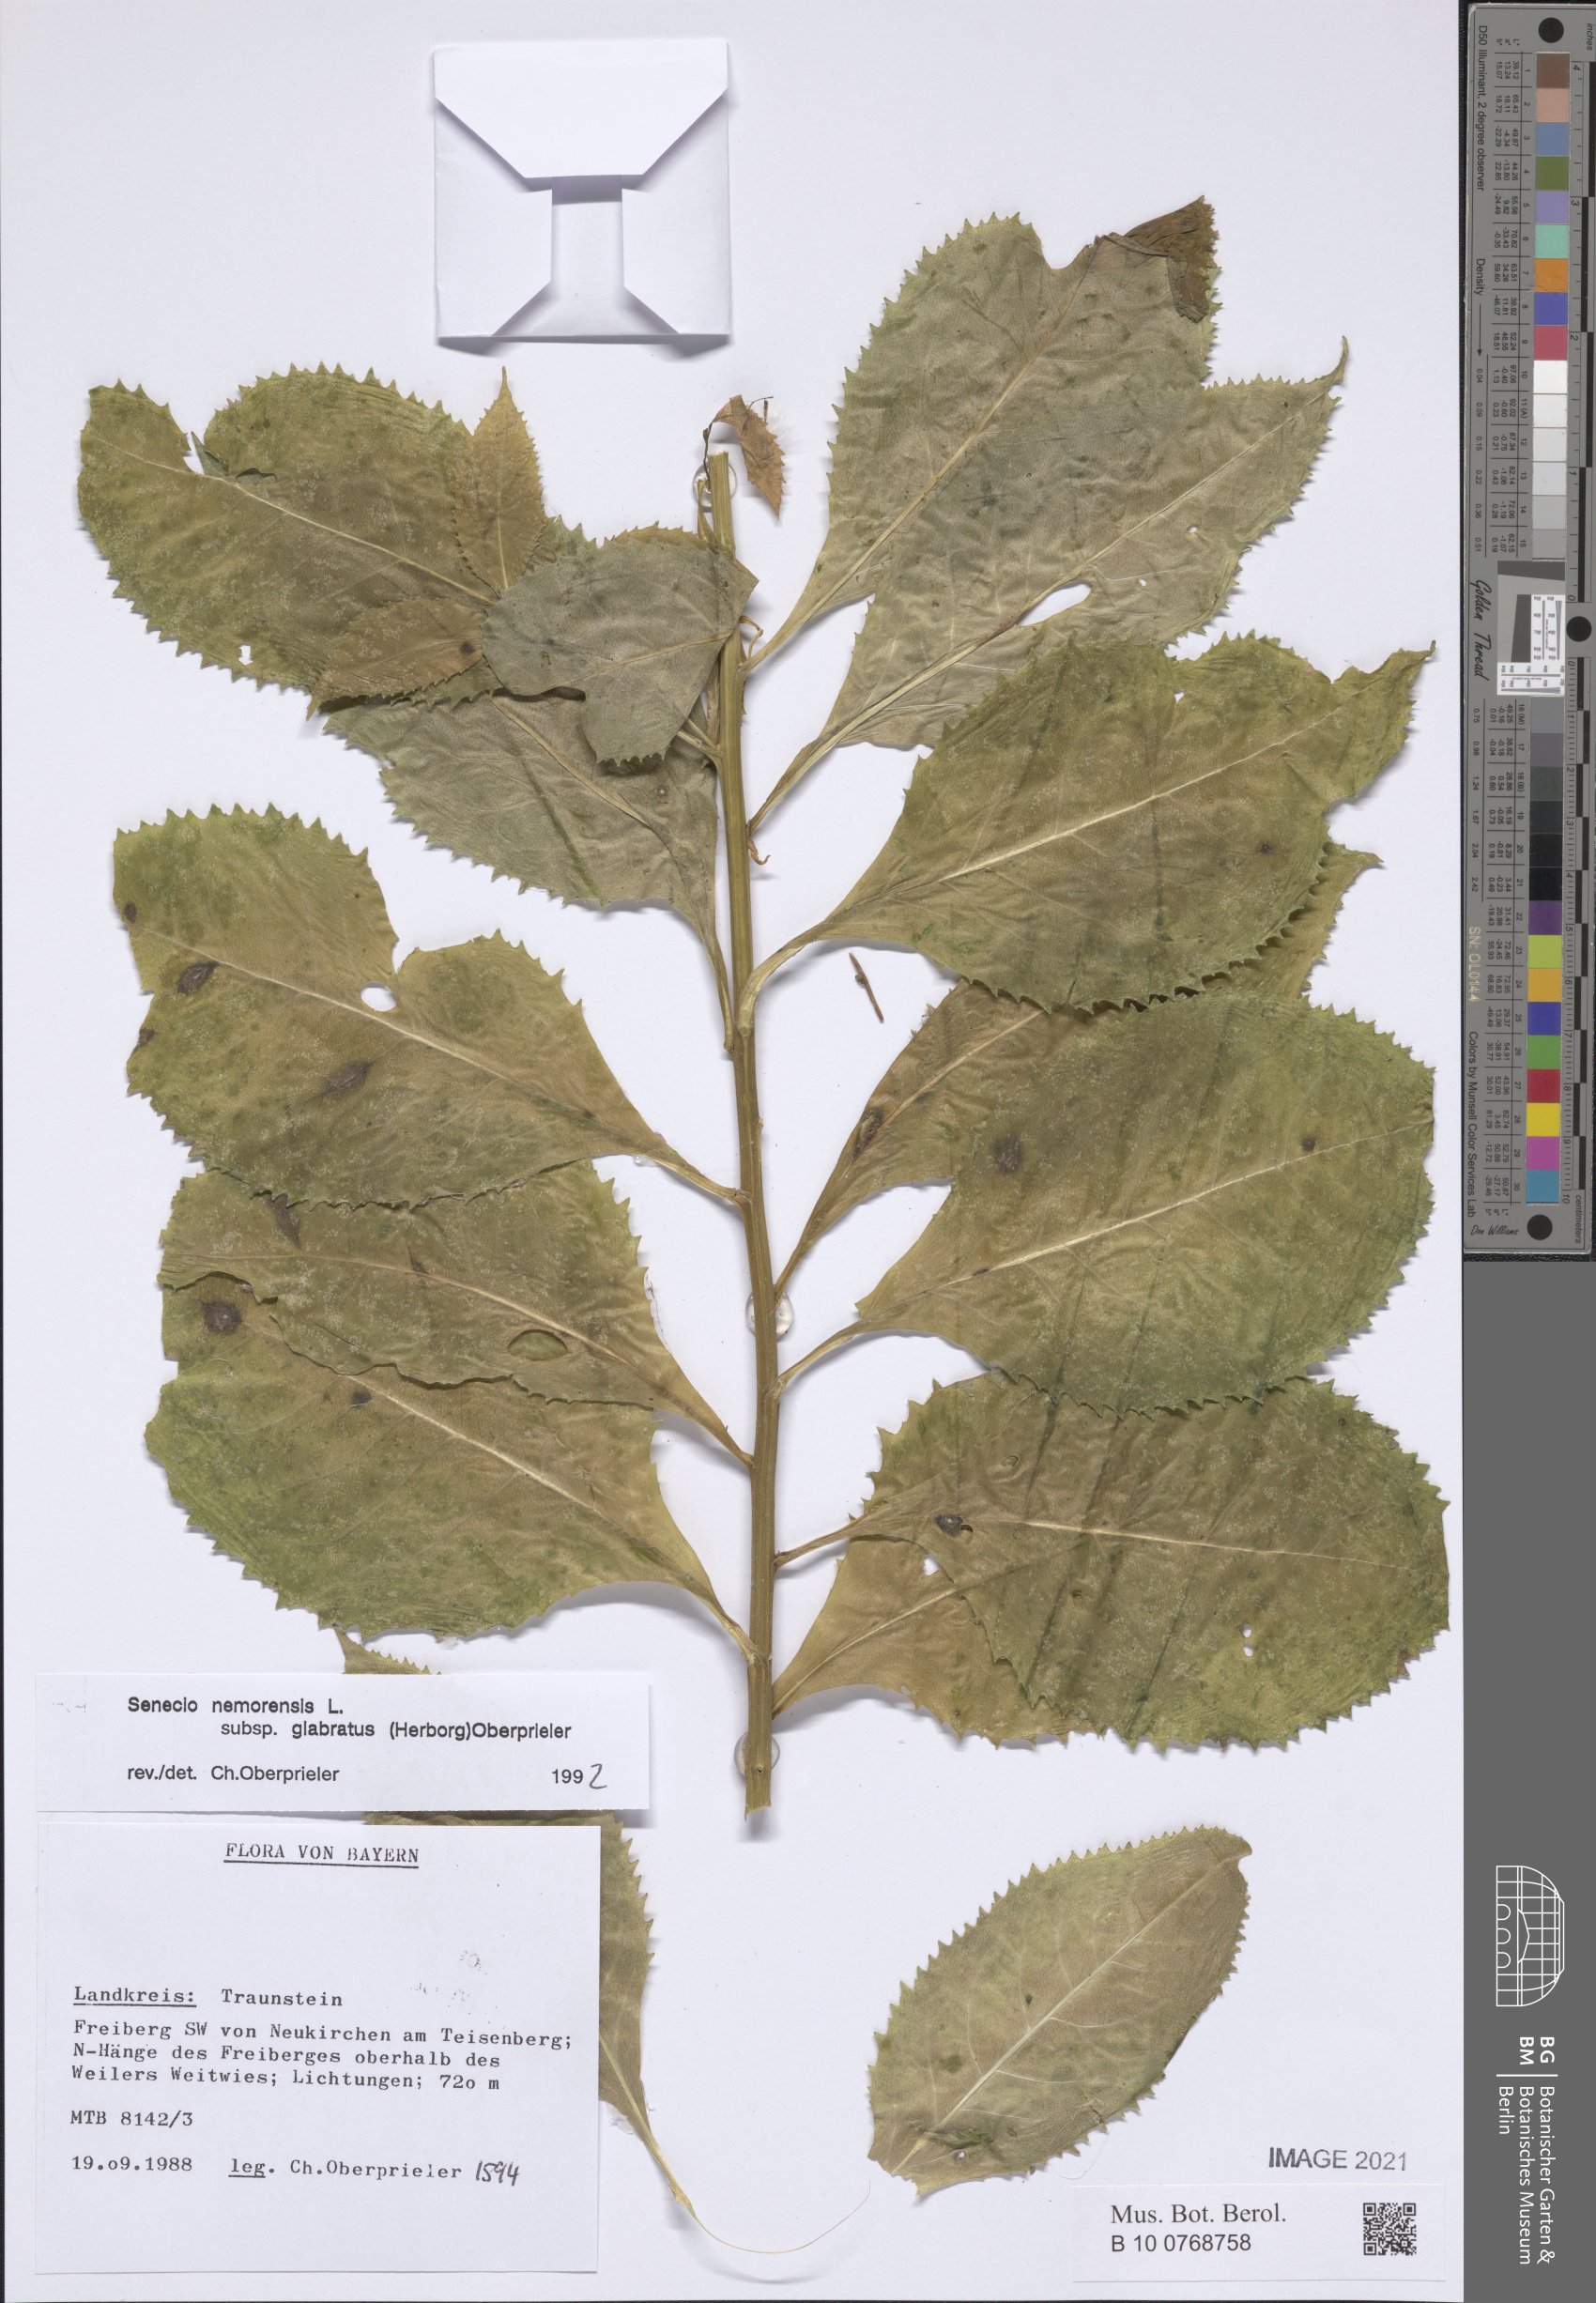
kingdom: Plantae
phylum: Tracheophyta
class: Magnoliopsida
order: Asterales
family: Asteraceae
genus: Senecio
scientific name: Senecio germanicus
